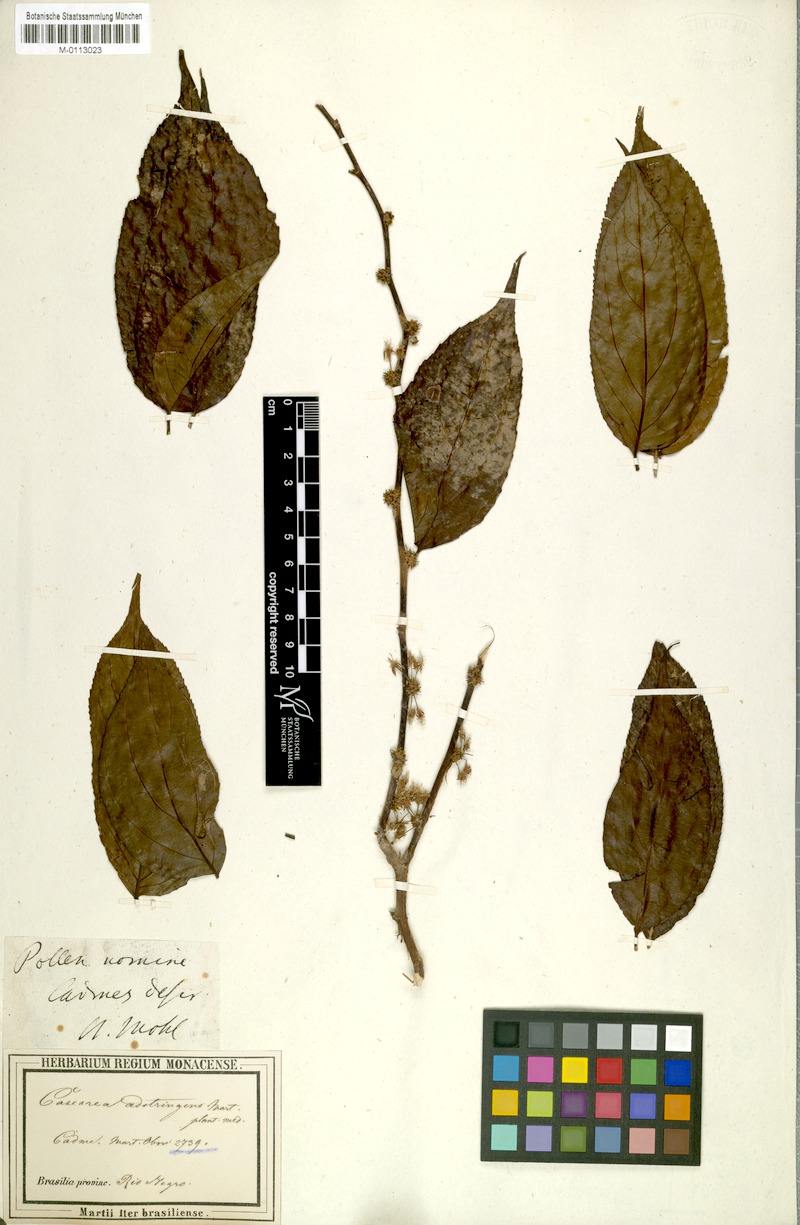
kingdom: Plantae
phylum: Tracheophyta
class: Magnoliopsida
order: Malpighiales
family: Salicaceae
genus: Casearia
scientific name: Casearia decandra
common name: Crack open
